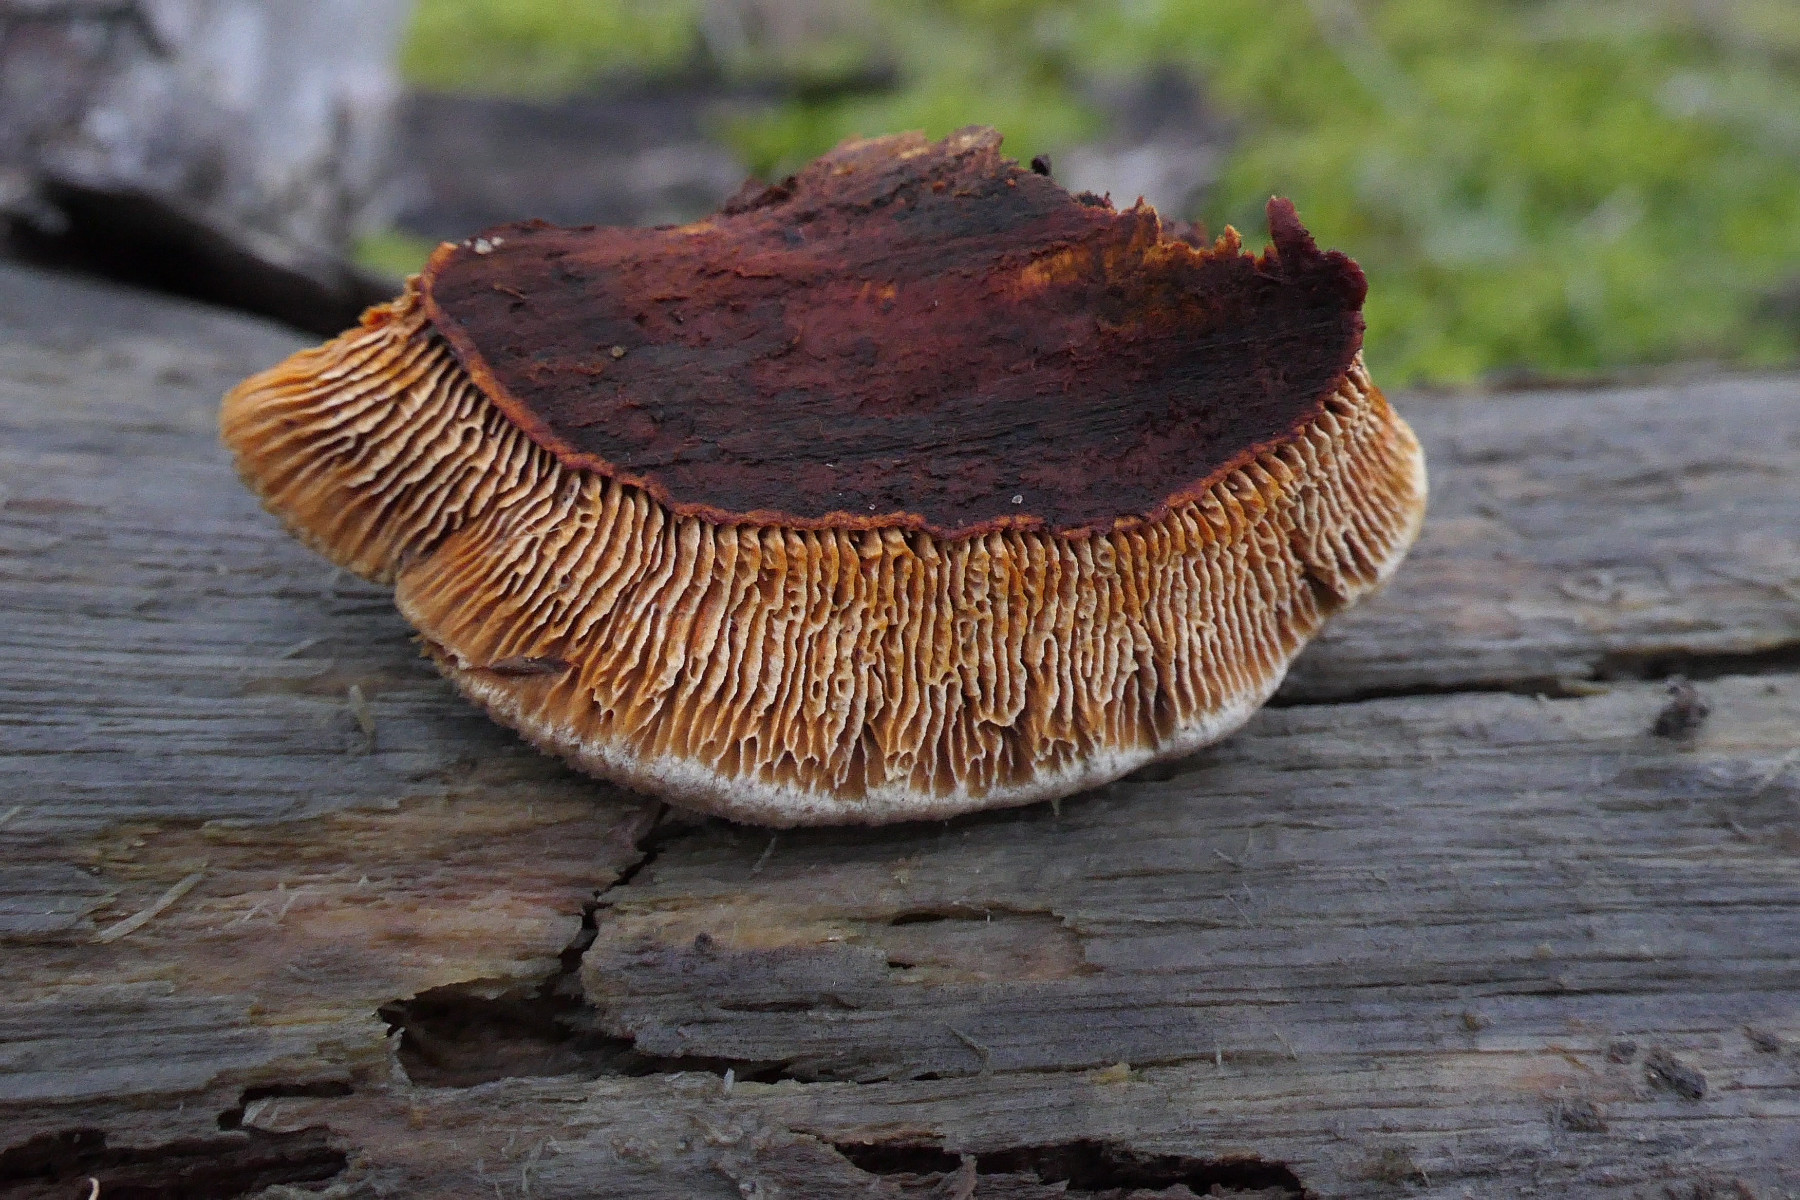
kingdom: Fungi
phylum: Basidiomycota
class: Agaricomycetes
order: Gloeophyllales
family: Gloeophyllaceae
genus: Gloeophyllum
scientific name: Gloeophyllum sepiarium
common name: fyrre-korkhat
